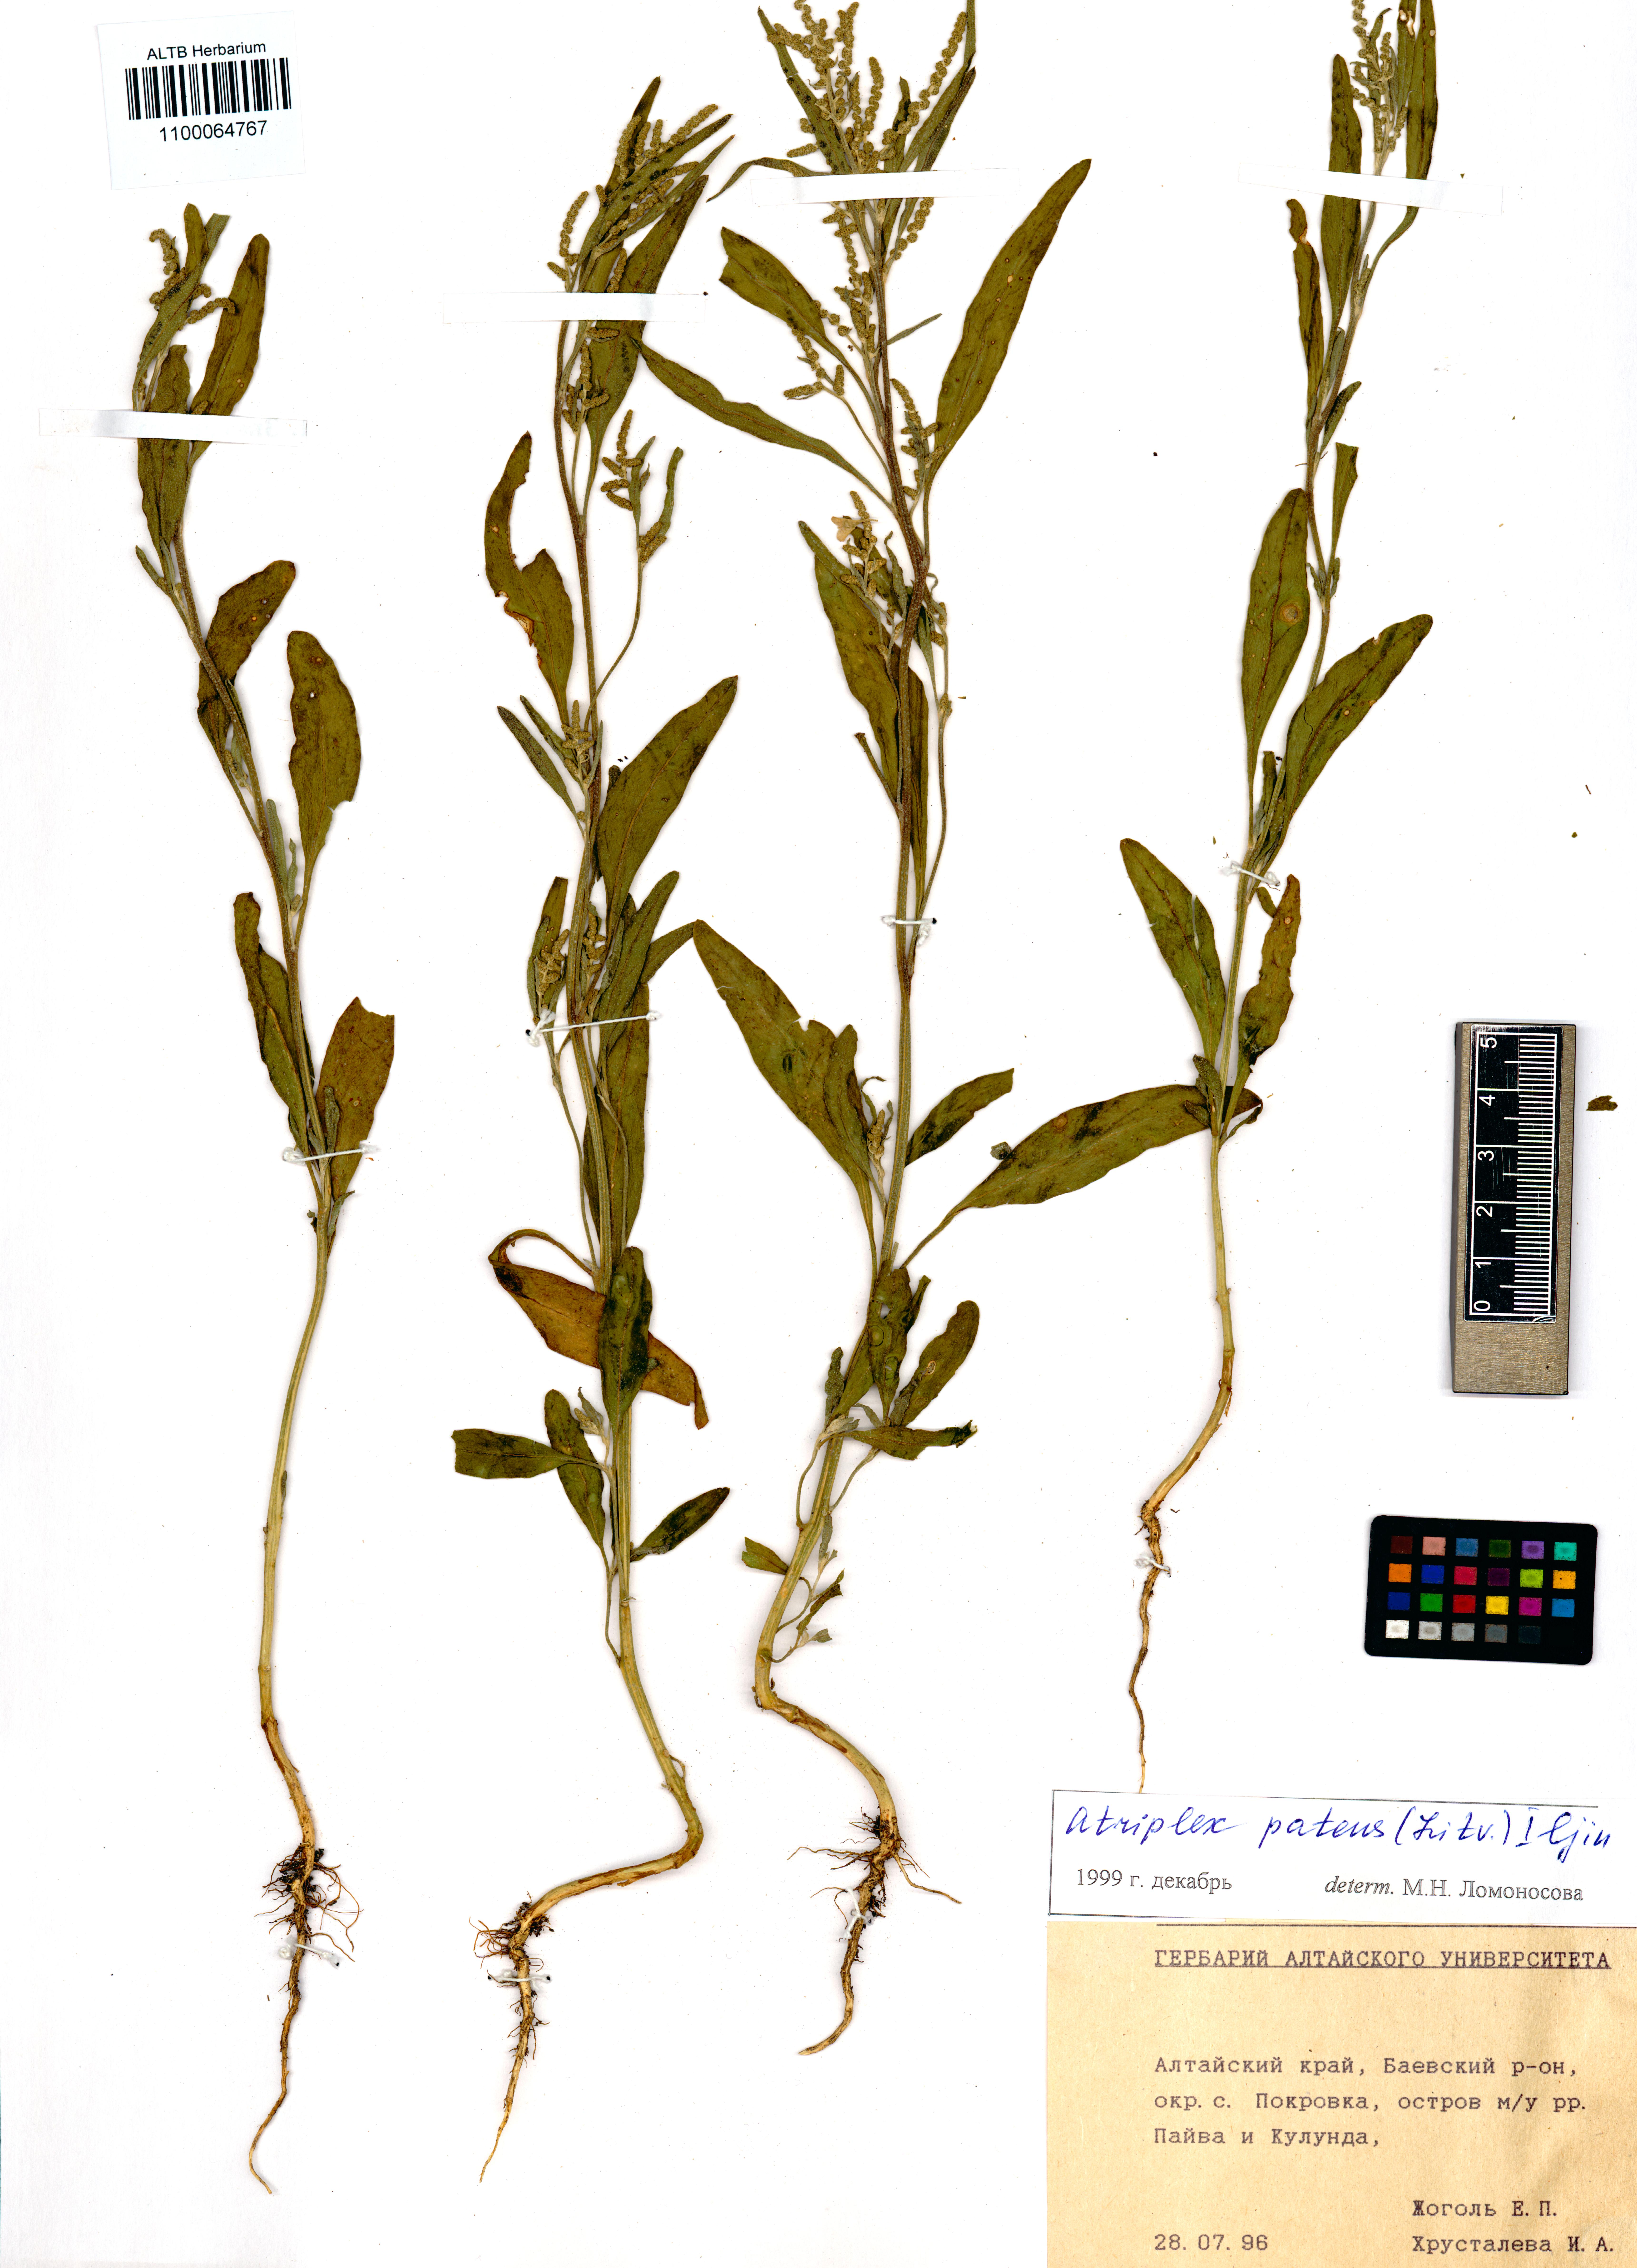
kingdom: Plantae
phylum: Tracheophyta
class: Magnoliopsida
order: Caryophyllales
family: Amaranthaceae
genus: Atriplex
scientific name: Atriplex patens
